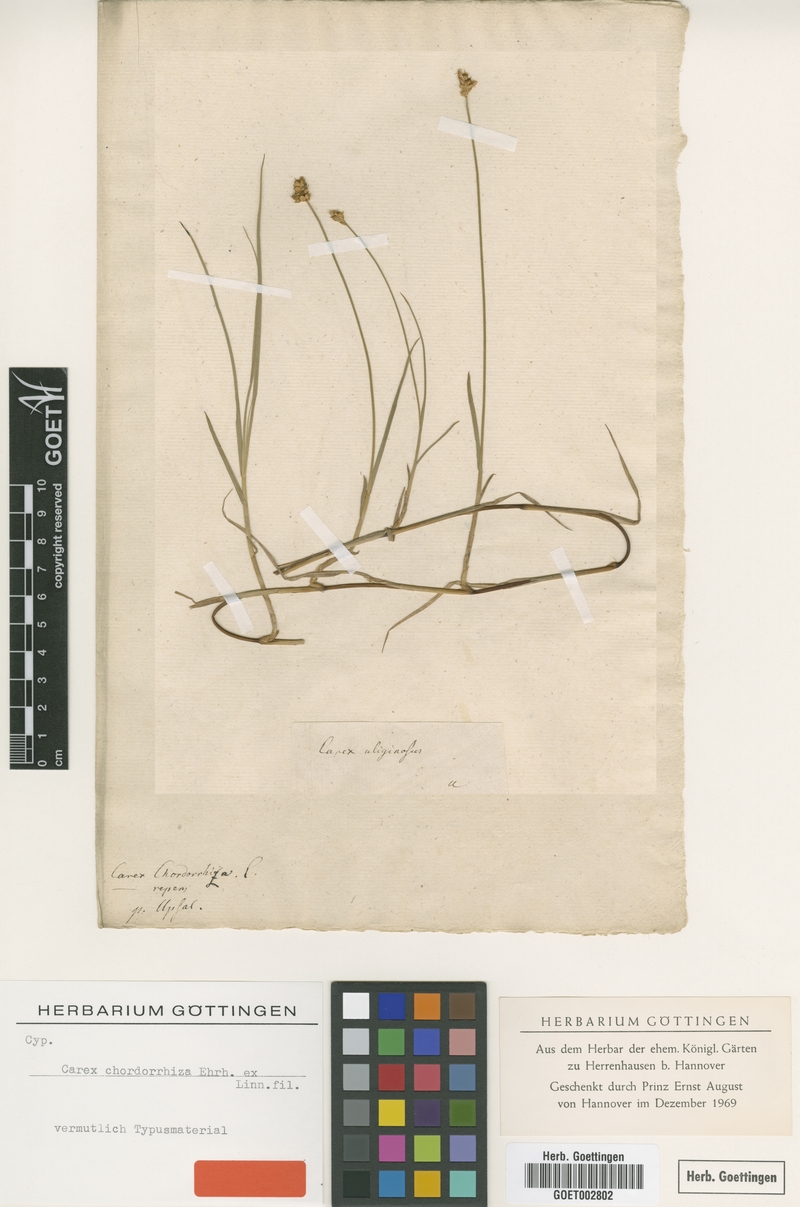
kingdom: Plantae
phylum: Tracheophyta
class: Liliopsida
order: Poales
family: Cyperaceae
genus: Carex
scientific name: Carex chordorrhiza
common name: String sedge
